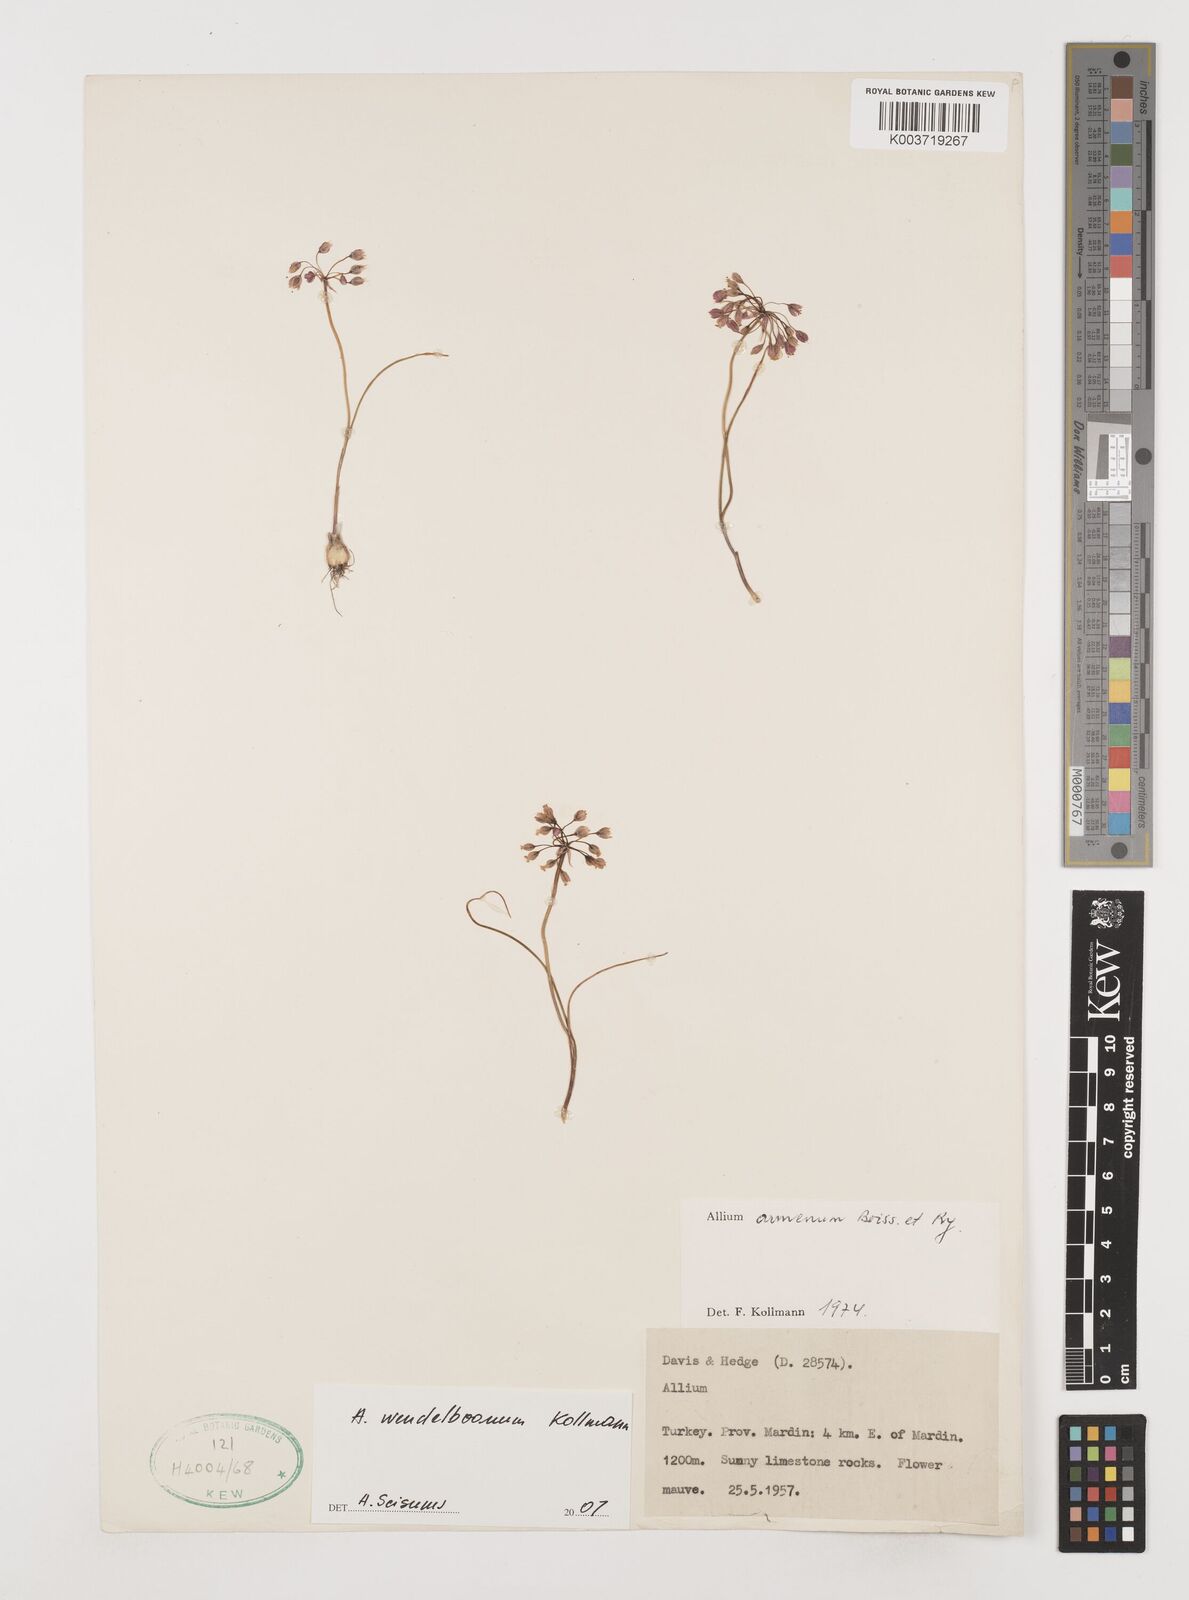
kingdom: Plantae
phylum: Tracheophyta
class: Liliopsida
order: Asparagales
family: Amaryllidaceae
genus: Allium
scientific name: Allium armenum
